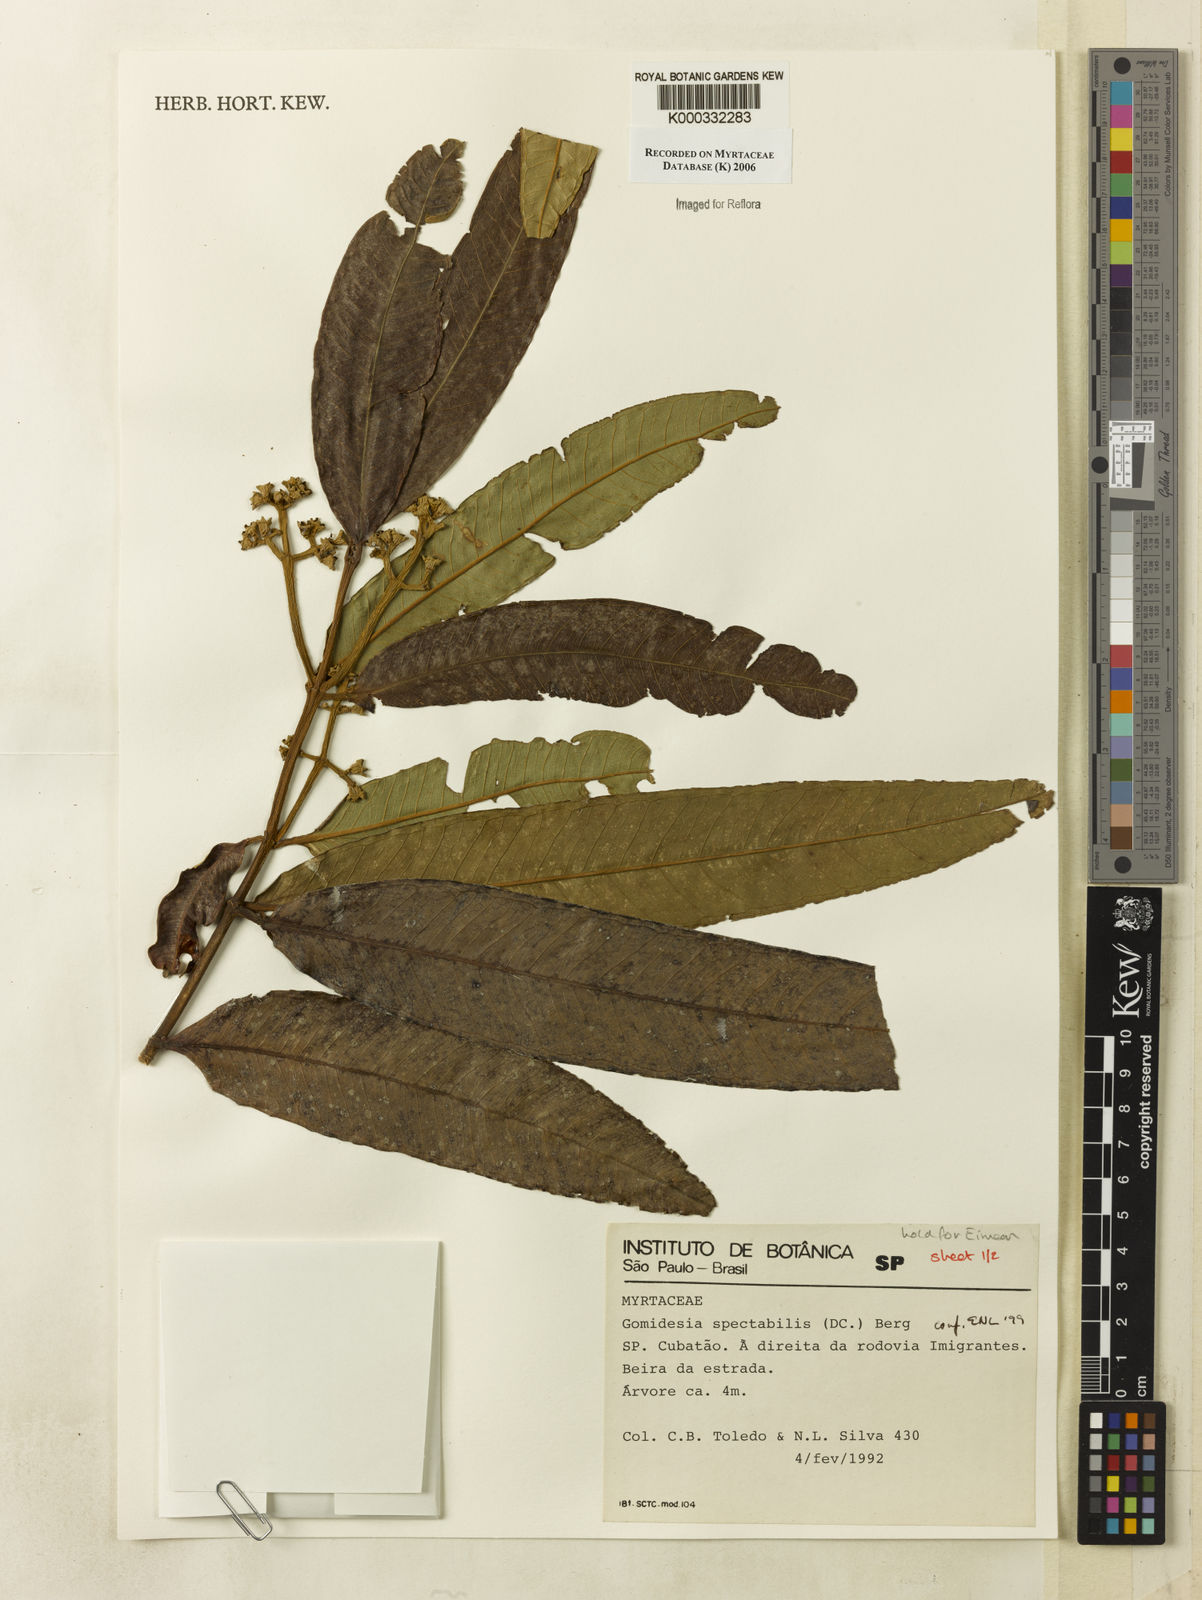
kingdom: Plantae
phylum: Tracheophyta
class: Magnoliopsida
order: Myrtales
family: Myrtaceae
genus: Myrcia
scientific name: Myrcia spectabilis
